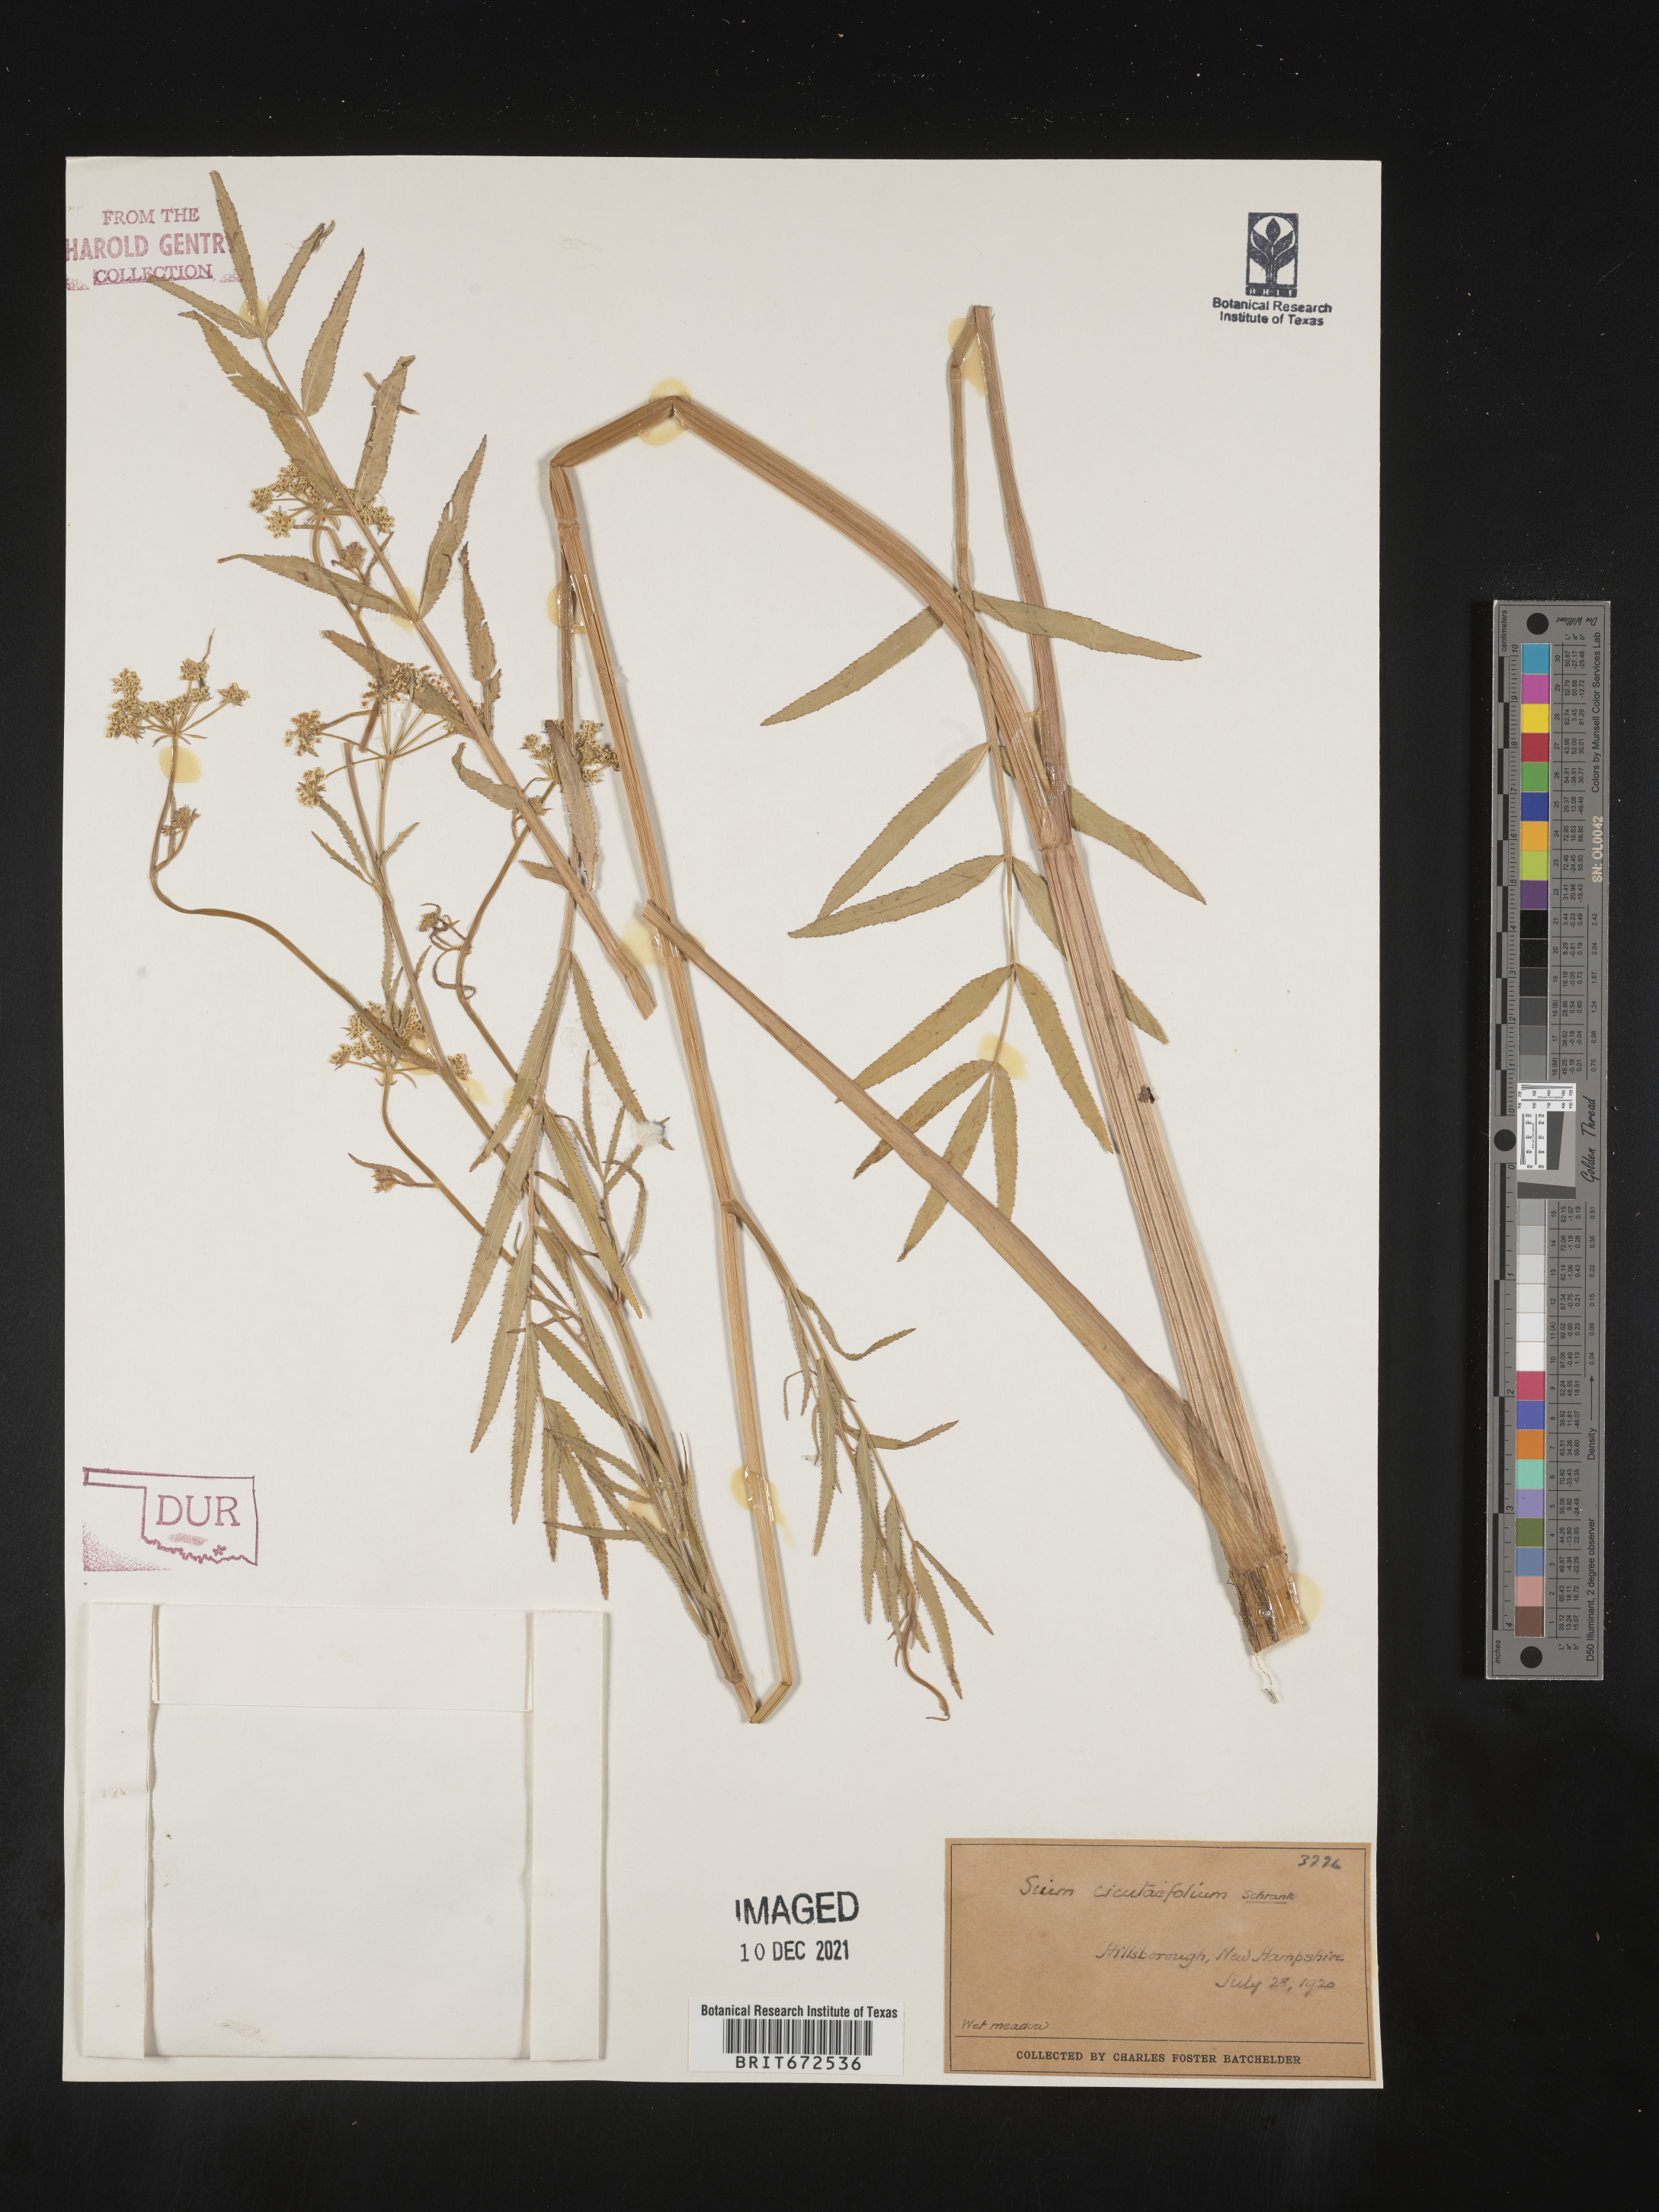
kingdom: Plantae
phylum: Tracheophyta
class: Magnoliopsida
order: Apiales
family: Apiaceae
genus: Sium
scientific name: Sium suave
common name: Hemlock water-parsnip
